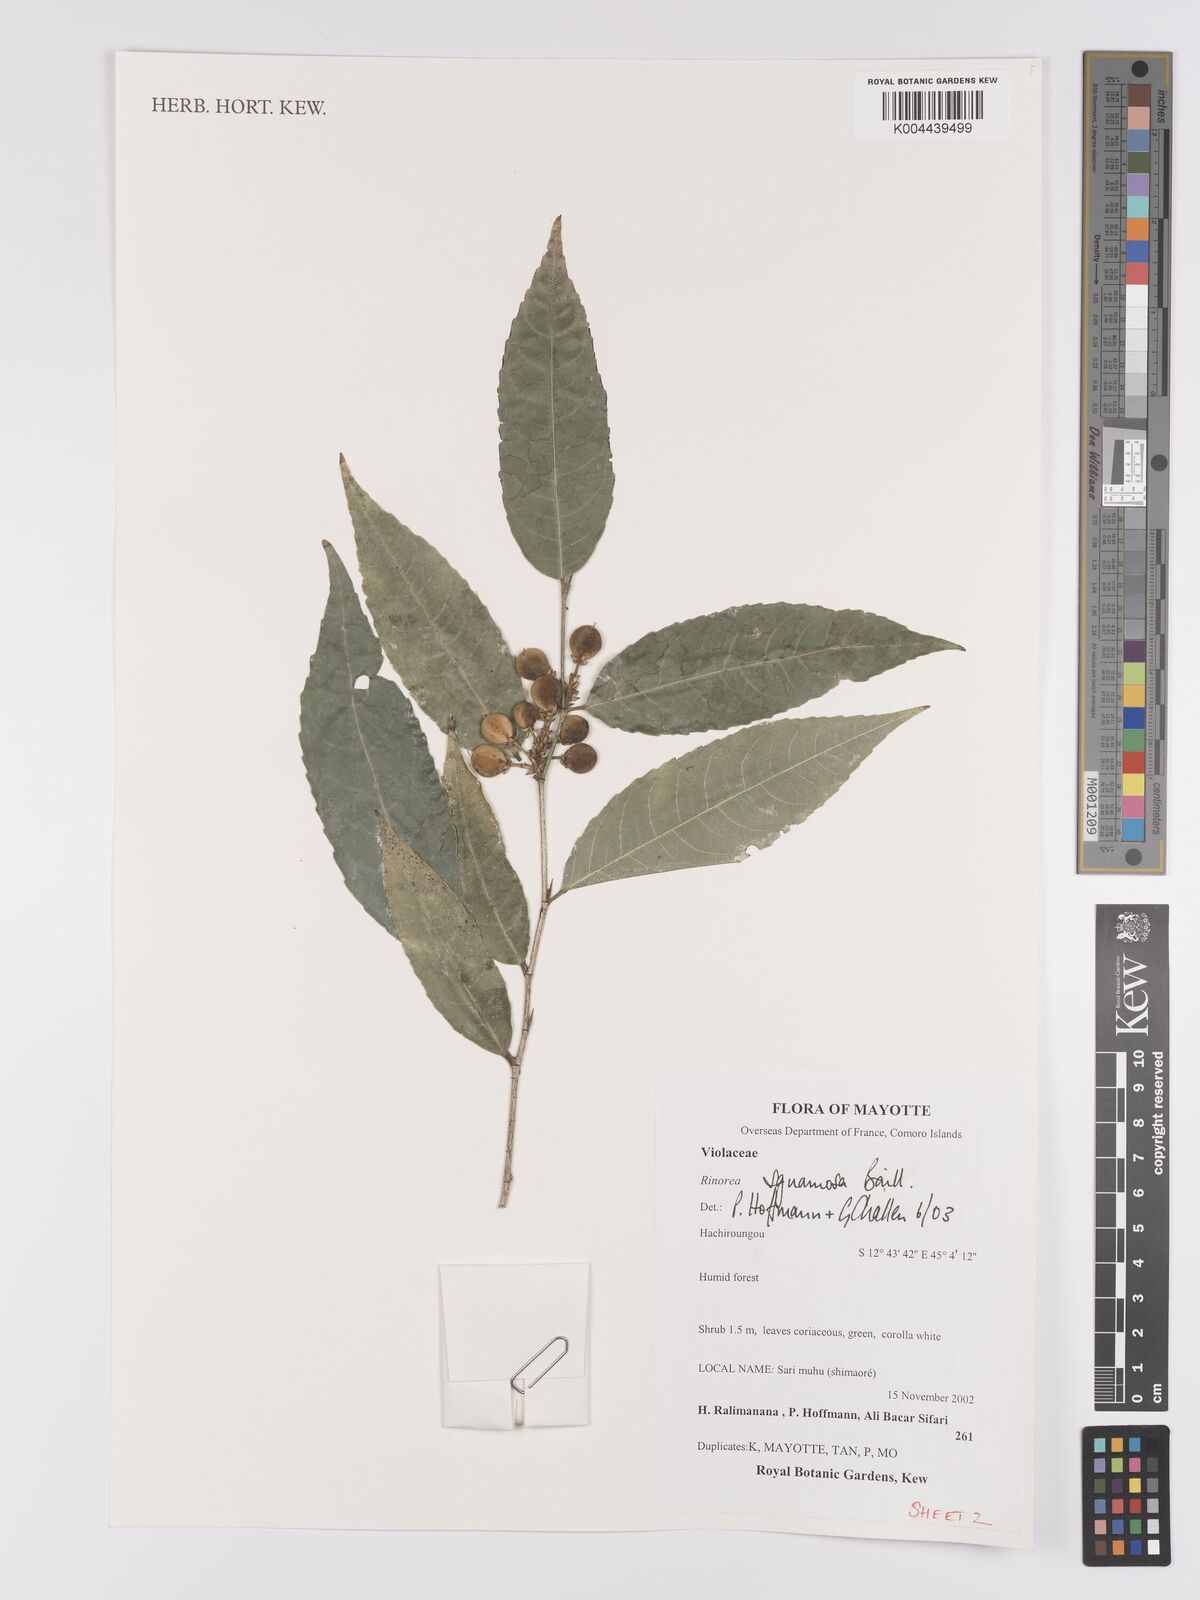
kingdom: Plantae
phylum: Tracheophyta
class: Magnoliopsida
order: Malpighiales
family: Violaceae
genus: Rinorea
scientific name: Rinorea squamosa
